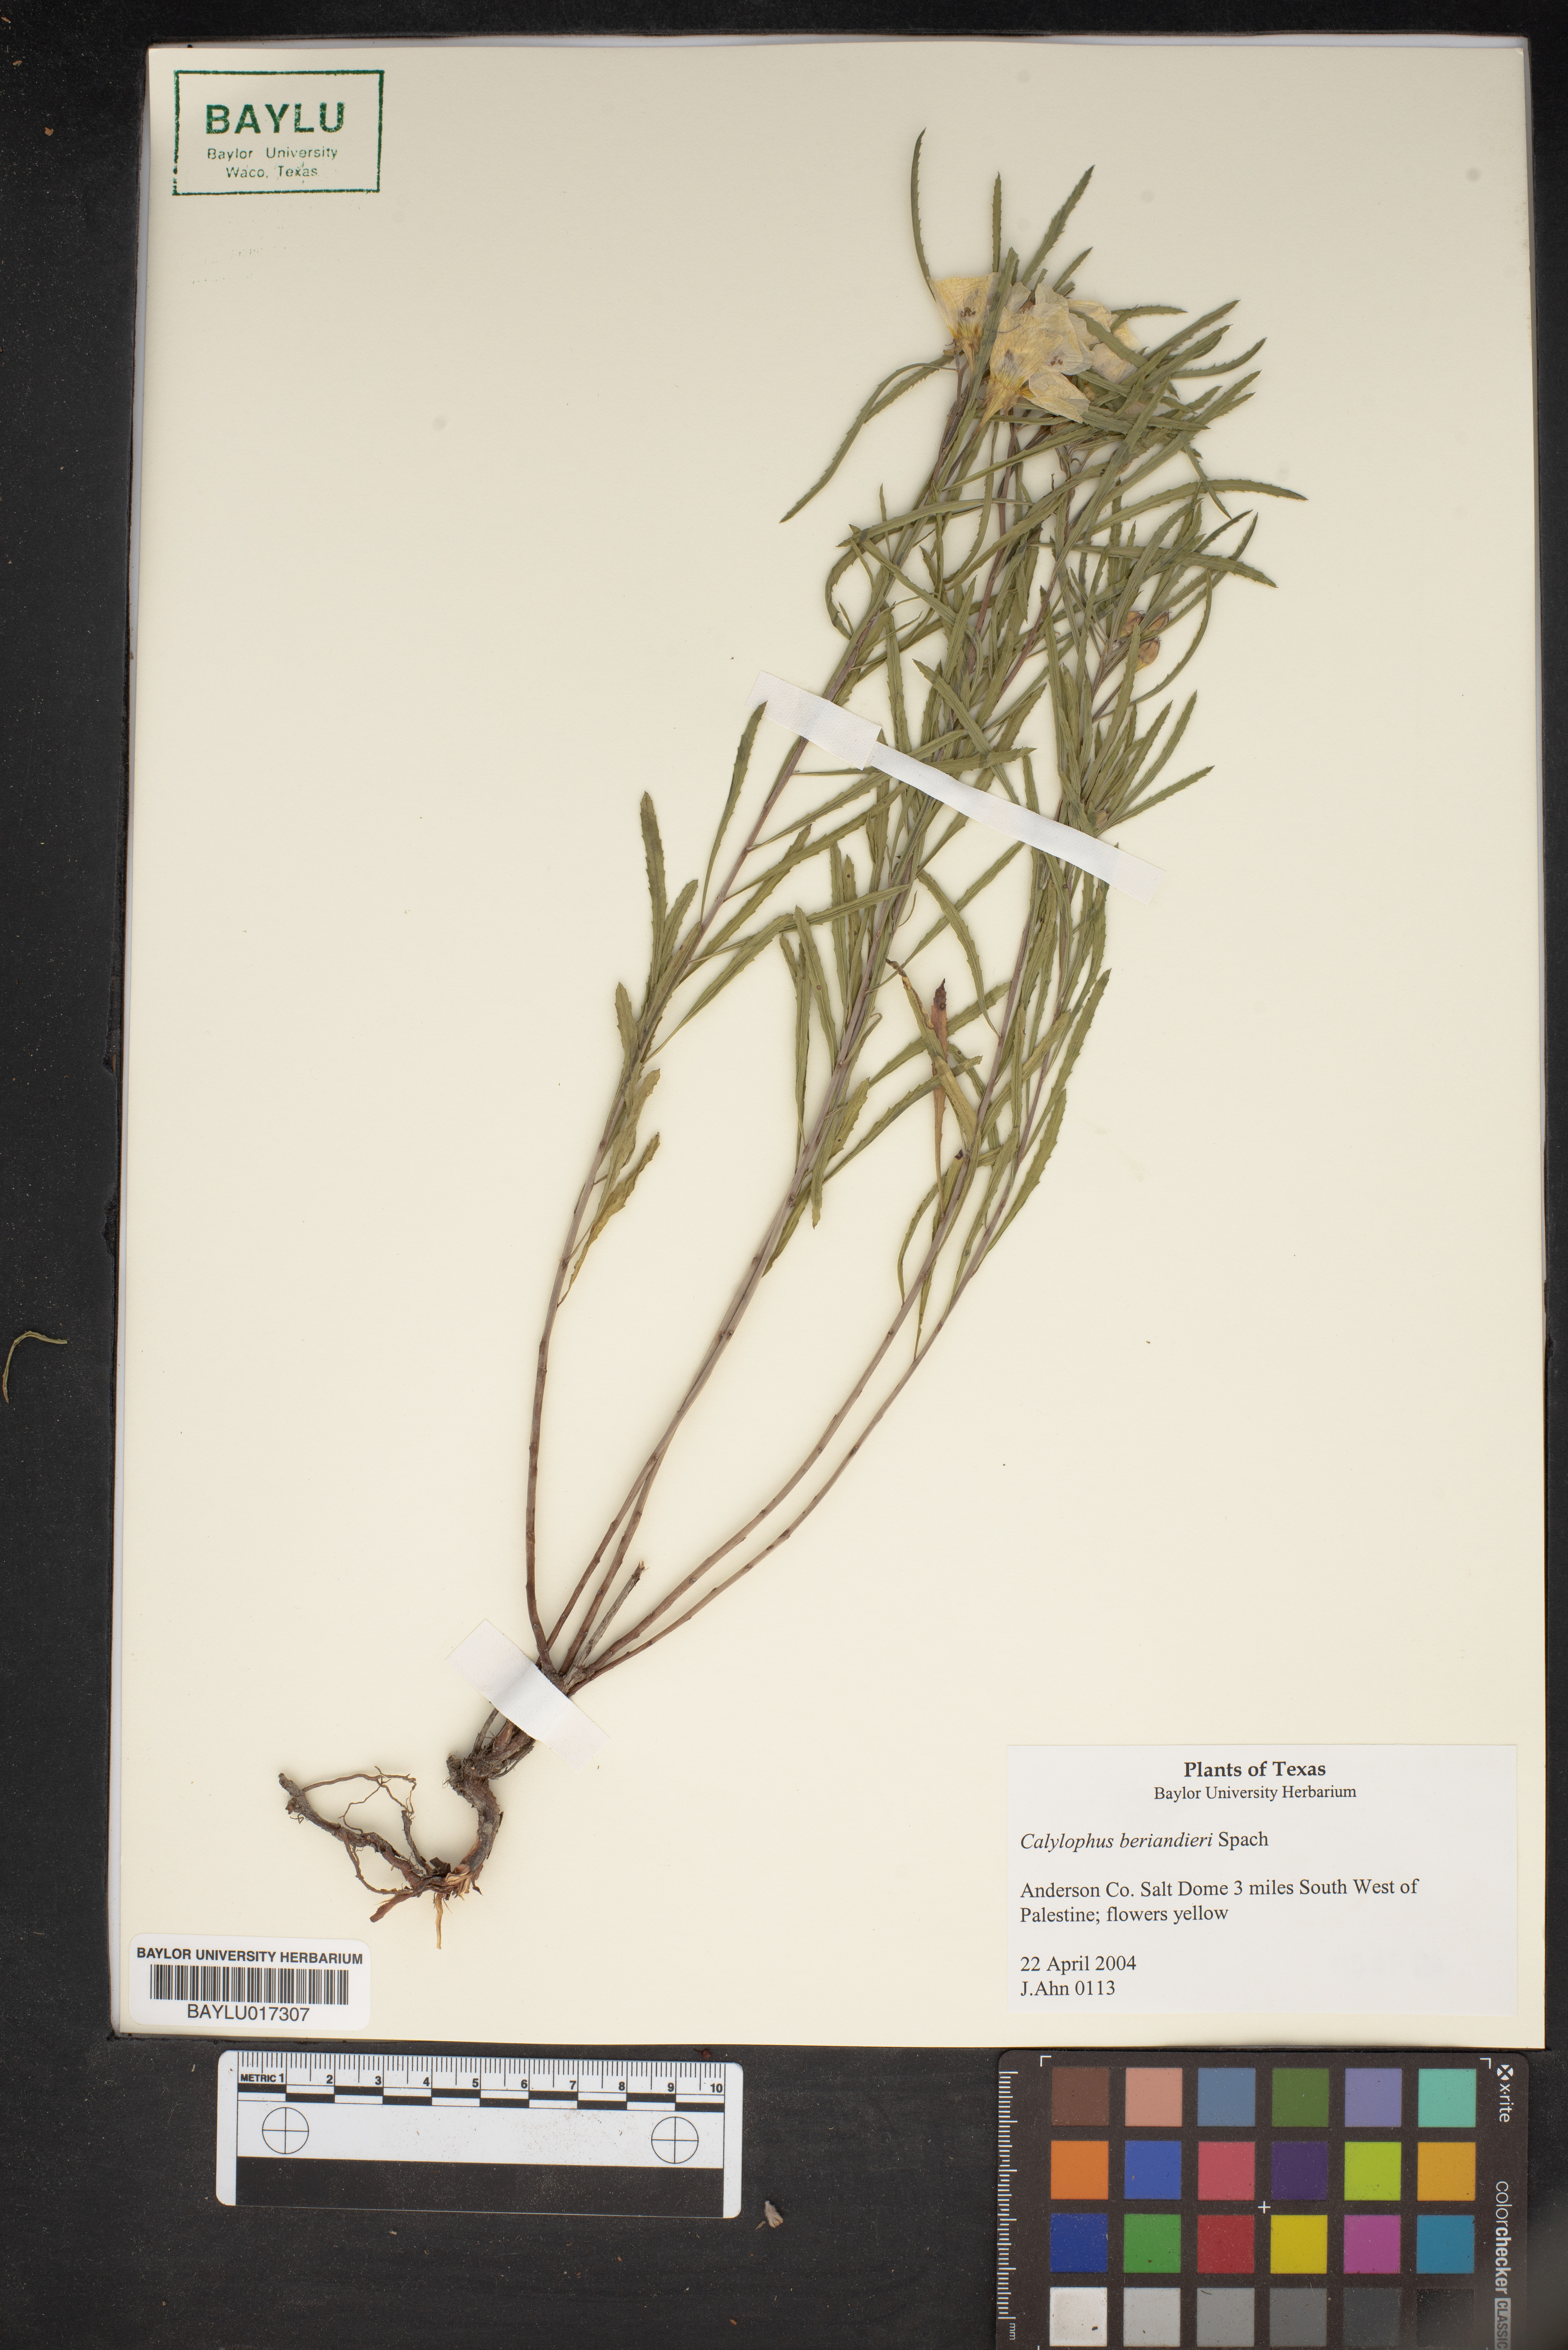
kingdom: Plantae
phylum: Tracheophyta
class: Magnoliopsida
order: Myrtales
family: Onagraceae
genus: Oenothera
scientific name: Oenothera capillifolia
